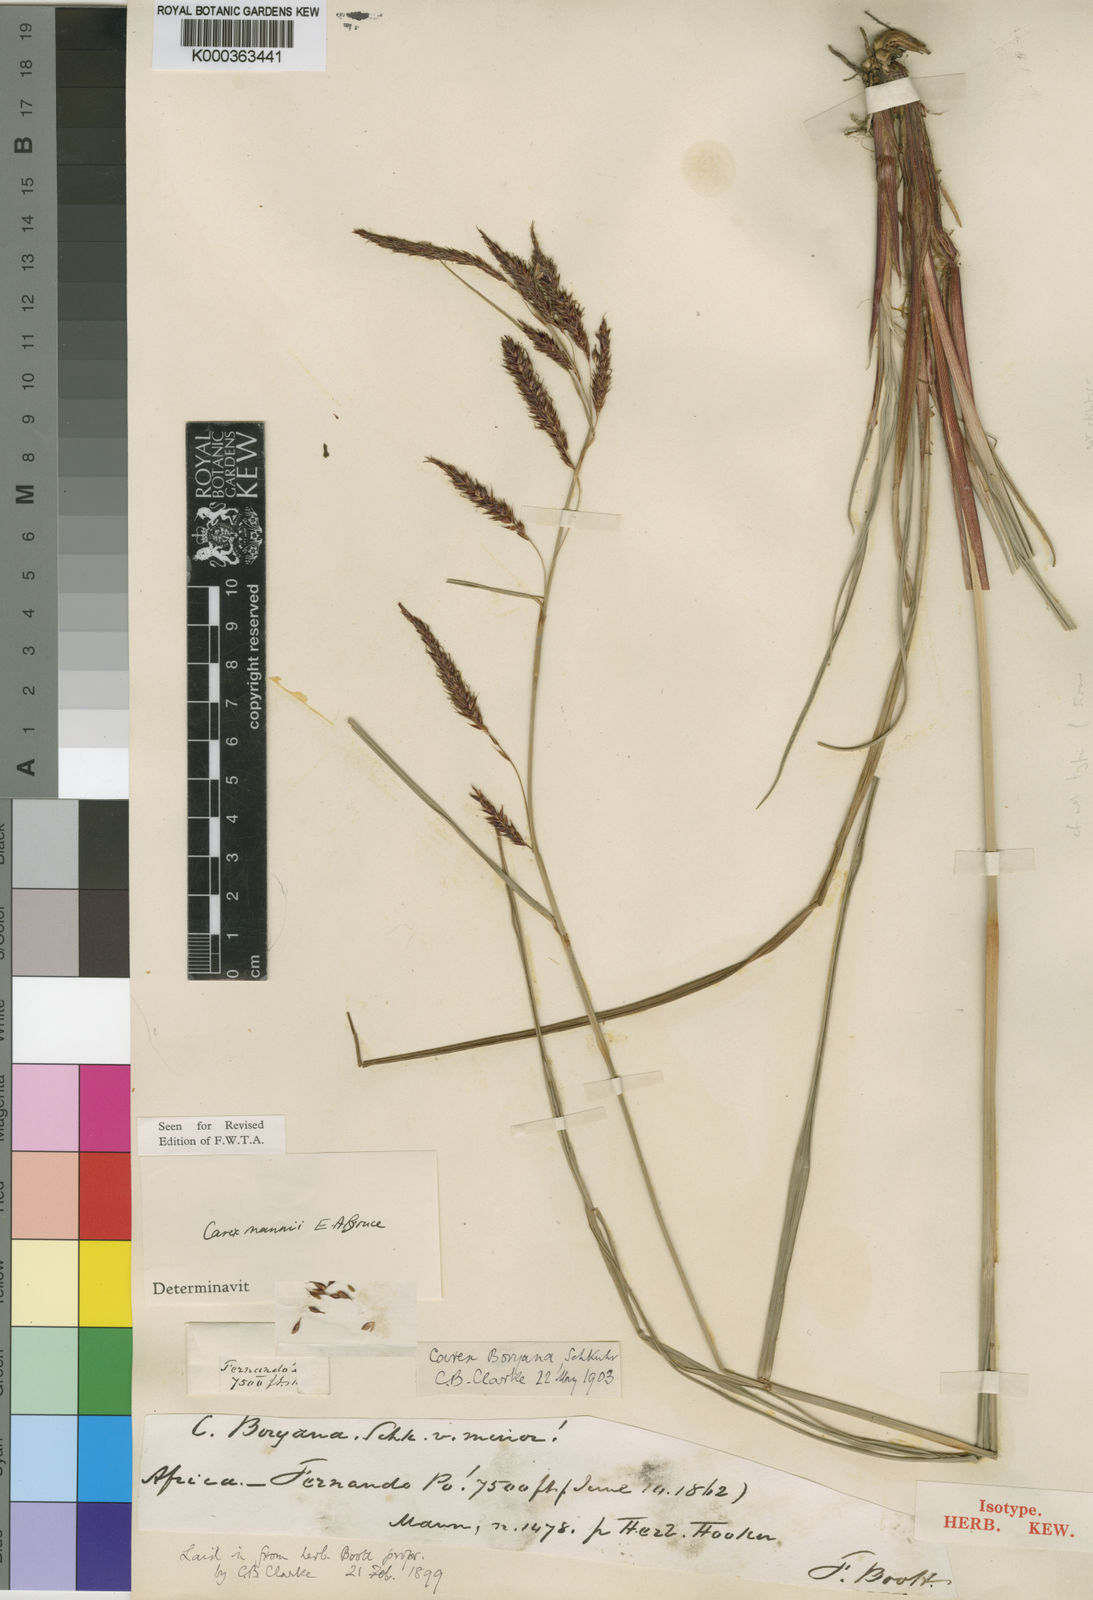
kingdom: Plantae
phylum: Tracheophyta
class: Liliopsida
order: Poales
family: Cyperaceae
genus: Carex
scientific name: Carex mannii
